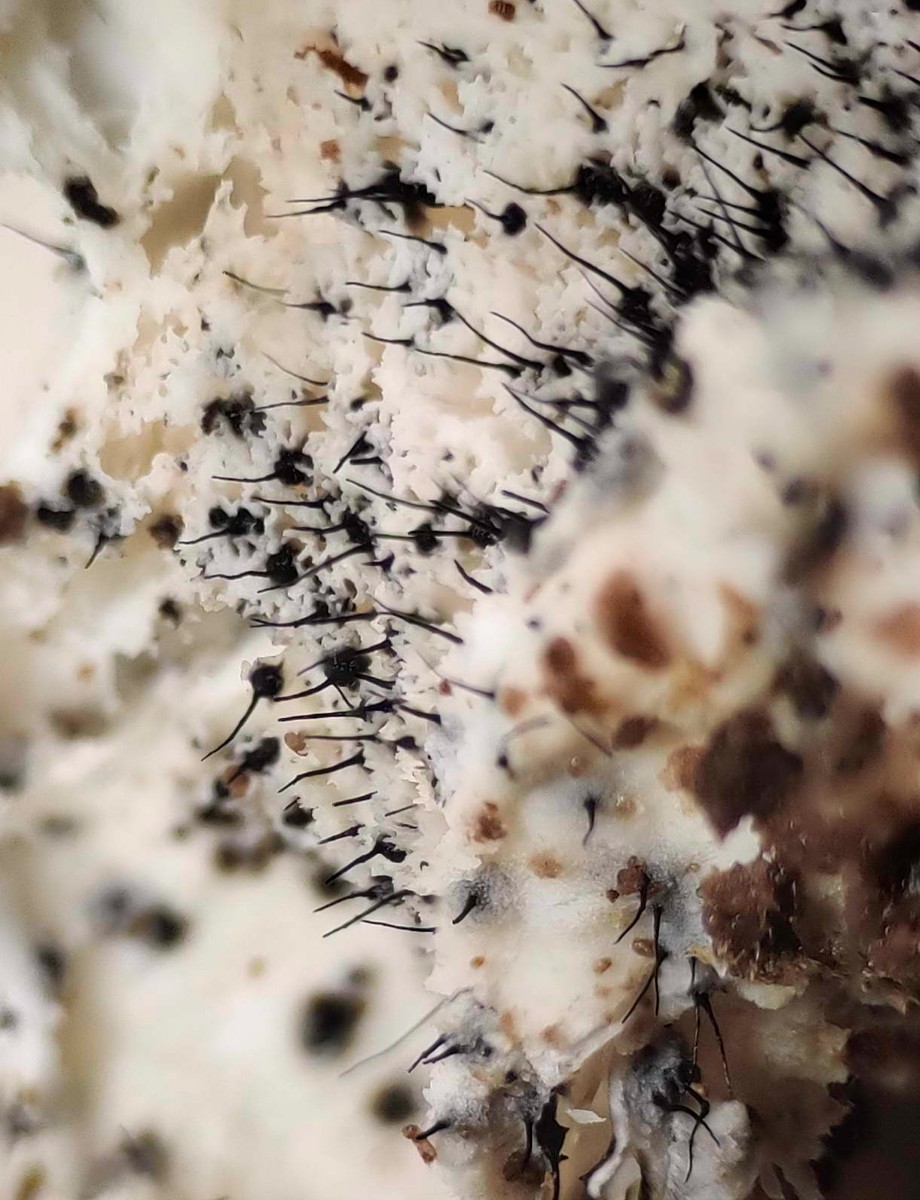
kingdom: Fungi
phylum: Ascomycota
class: Sordariomycetes
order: Ophiostomatales
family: Ophiostomataceae
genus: Sporothrix
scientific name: Sporothrix polyporicola
